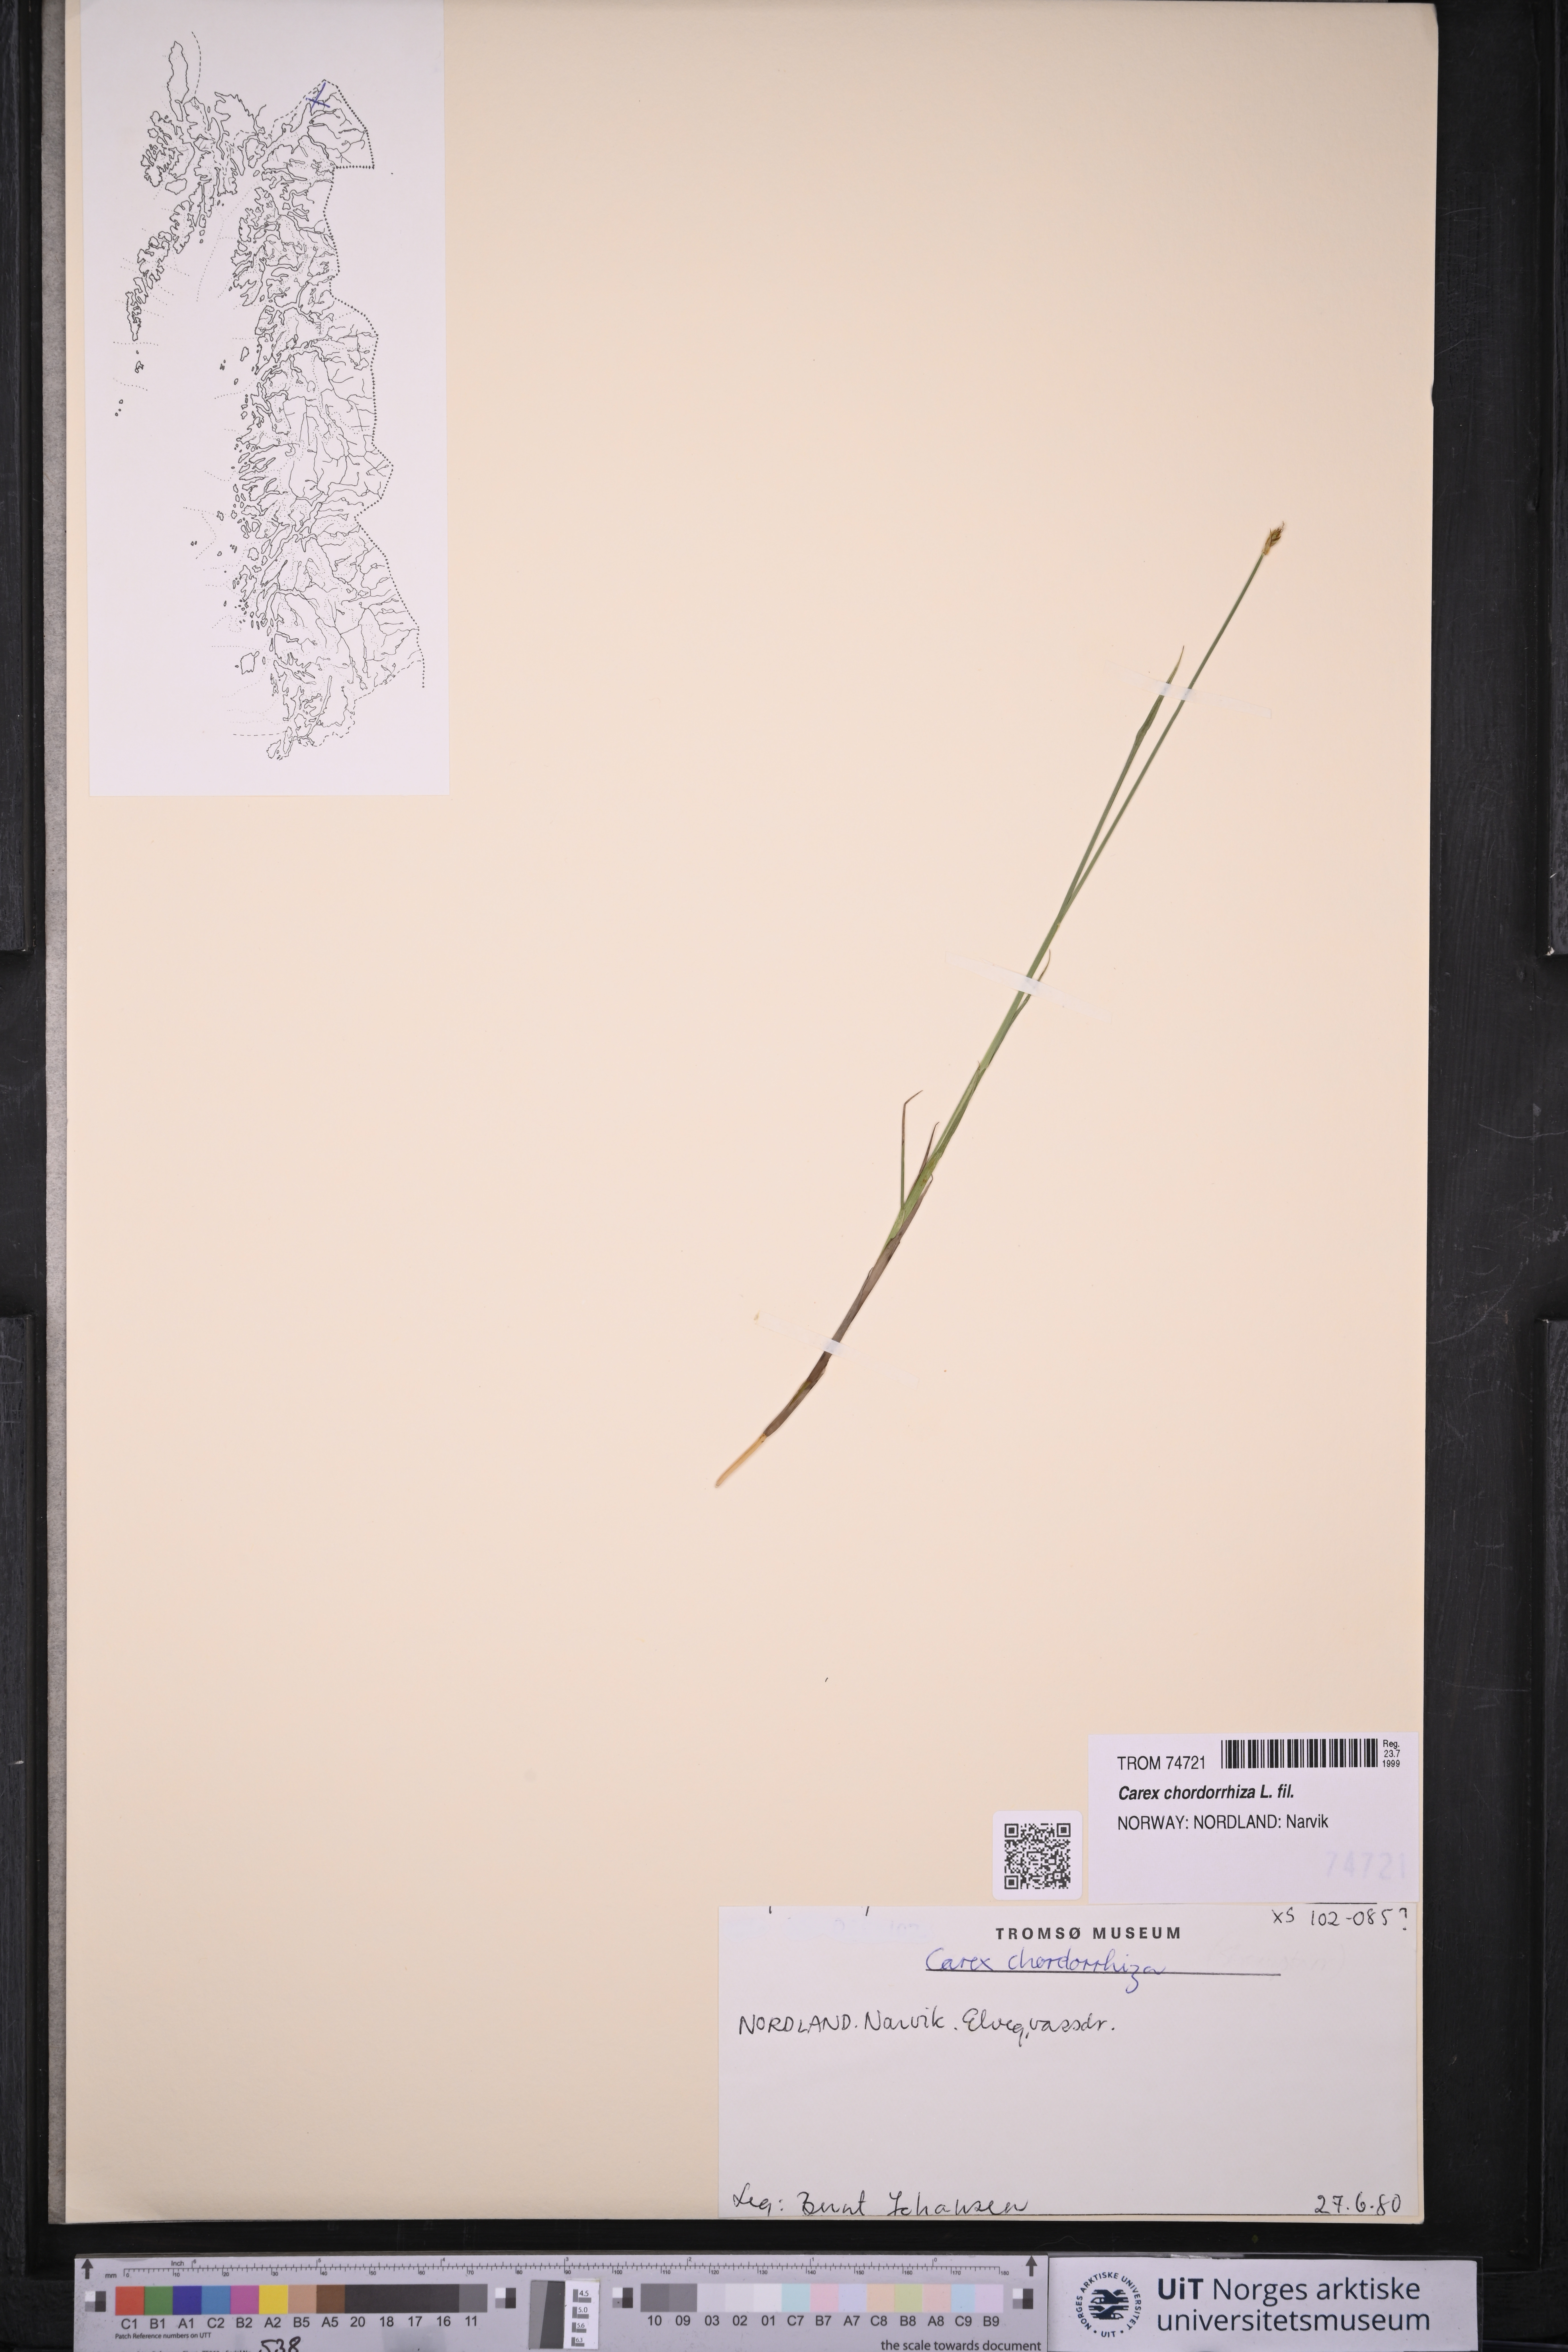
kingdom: Plantae
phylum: Tracheophyta
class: Liliopsida
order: Poales
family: Cyperaceae
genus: Carex
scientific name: Carex chordorrhiza
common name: String sedge
